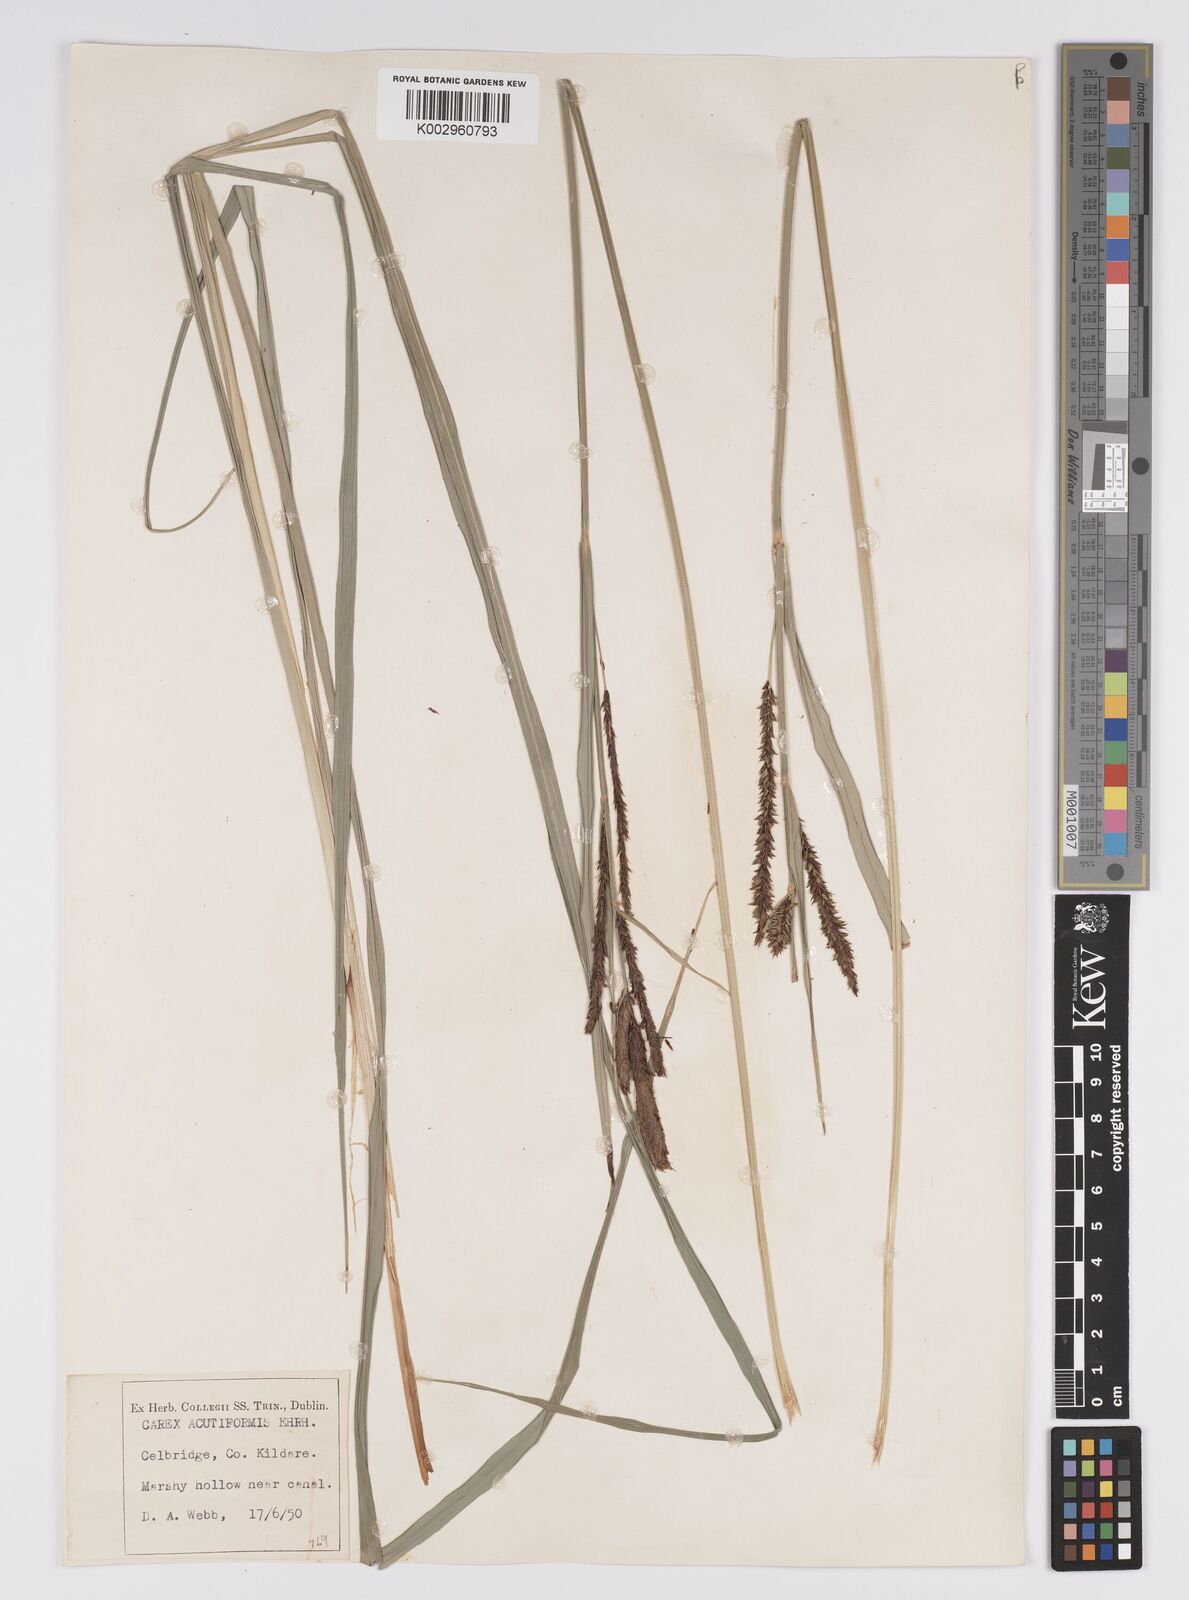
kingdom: Plantae
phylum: Tracheophyta
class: Liliopsida
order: Poales
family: Cyperaceae
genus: Carex
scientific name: Carex acutiformis
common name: Lesser pond-sedge
